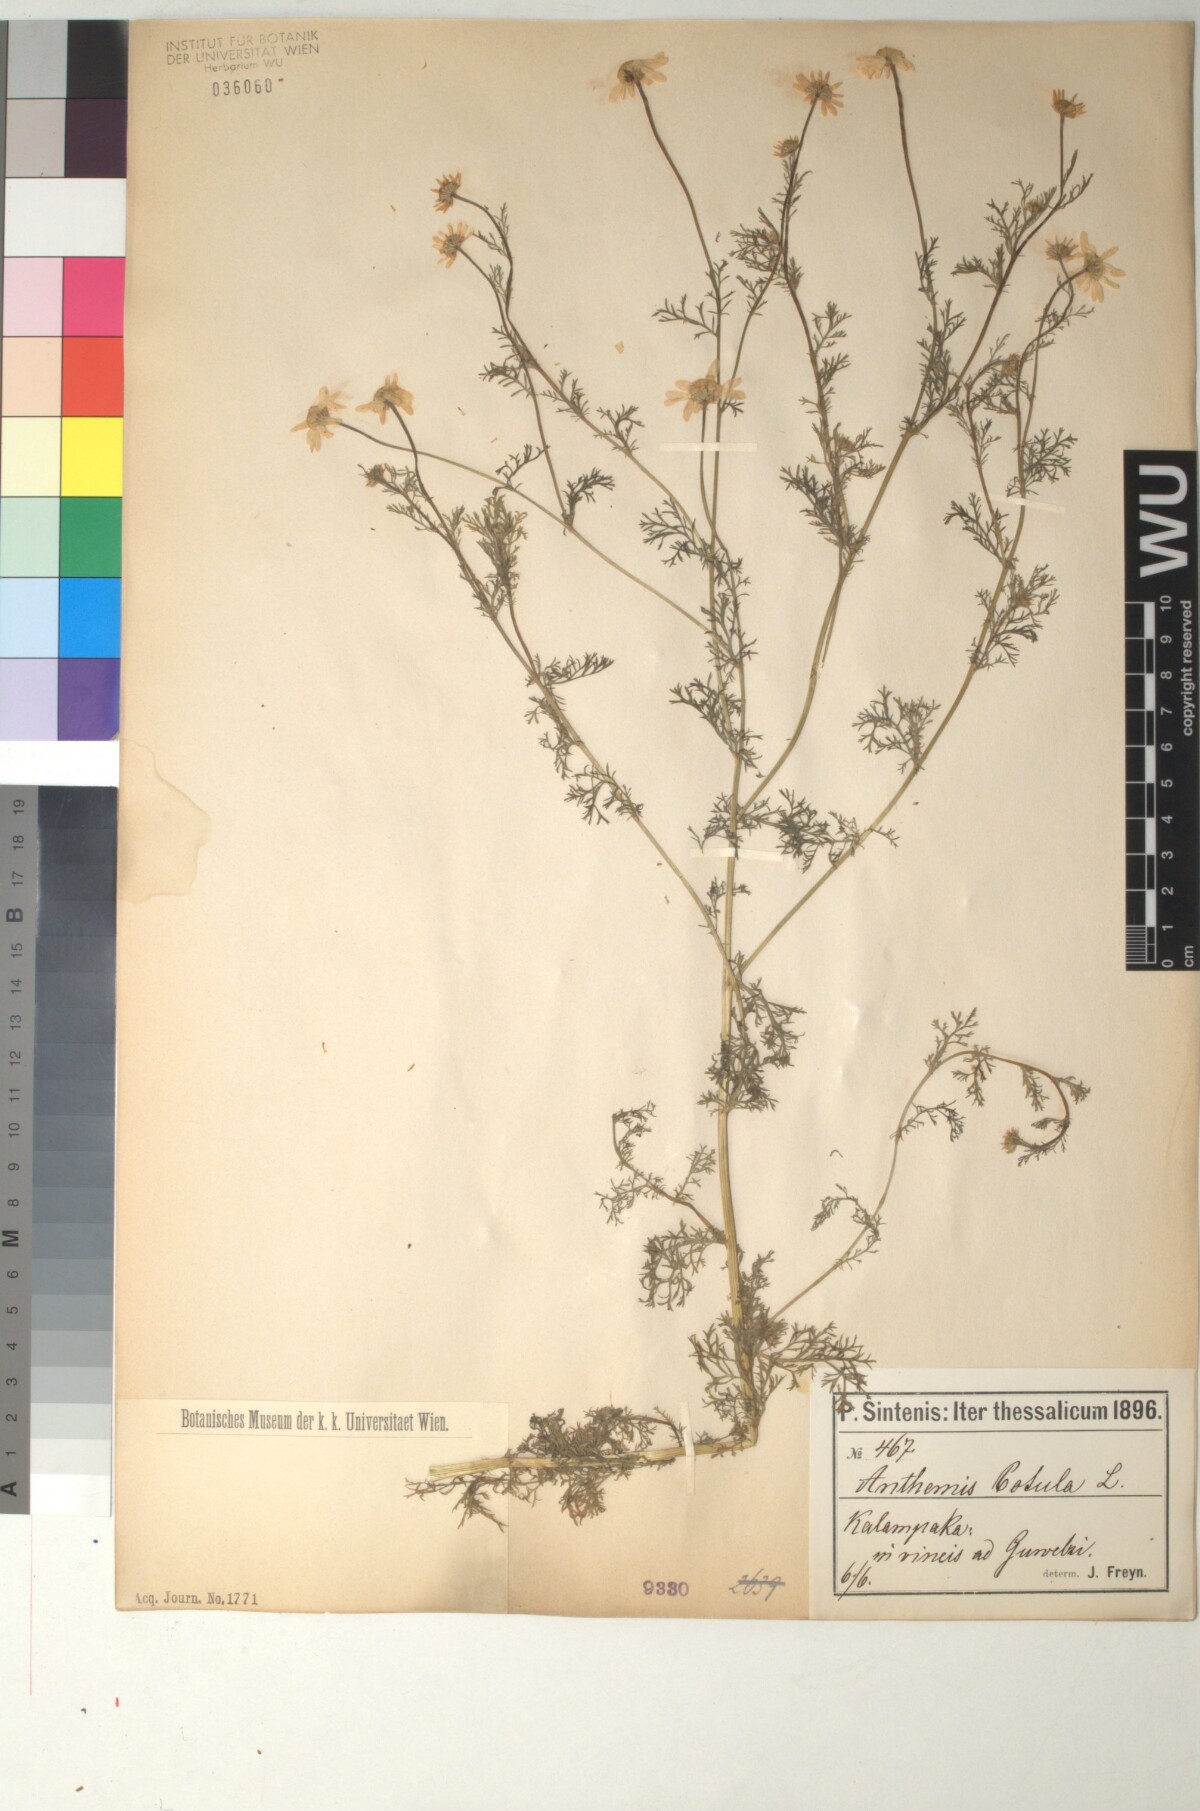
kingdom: Plantae
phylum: Tracheophyta
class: Magnoliopsida
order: Asterales
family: Asteraceae
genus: Anthemis
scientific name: Anthemis cotula
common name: Stinking chamomile
